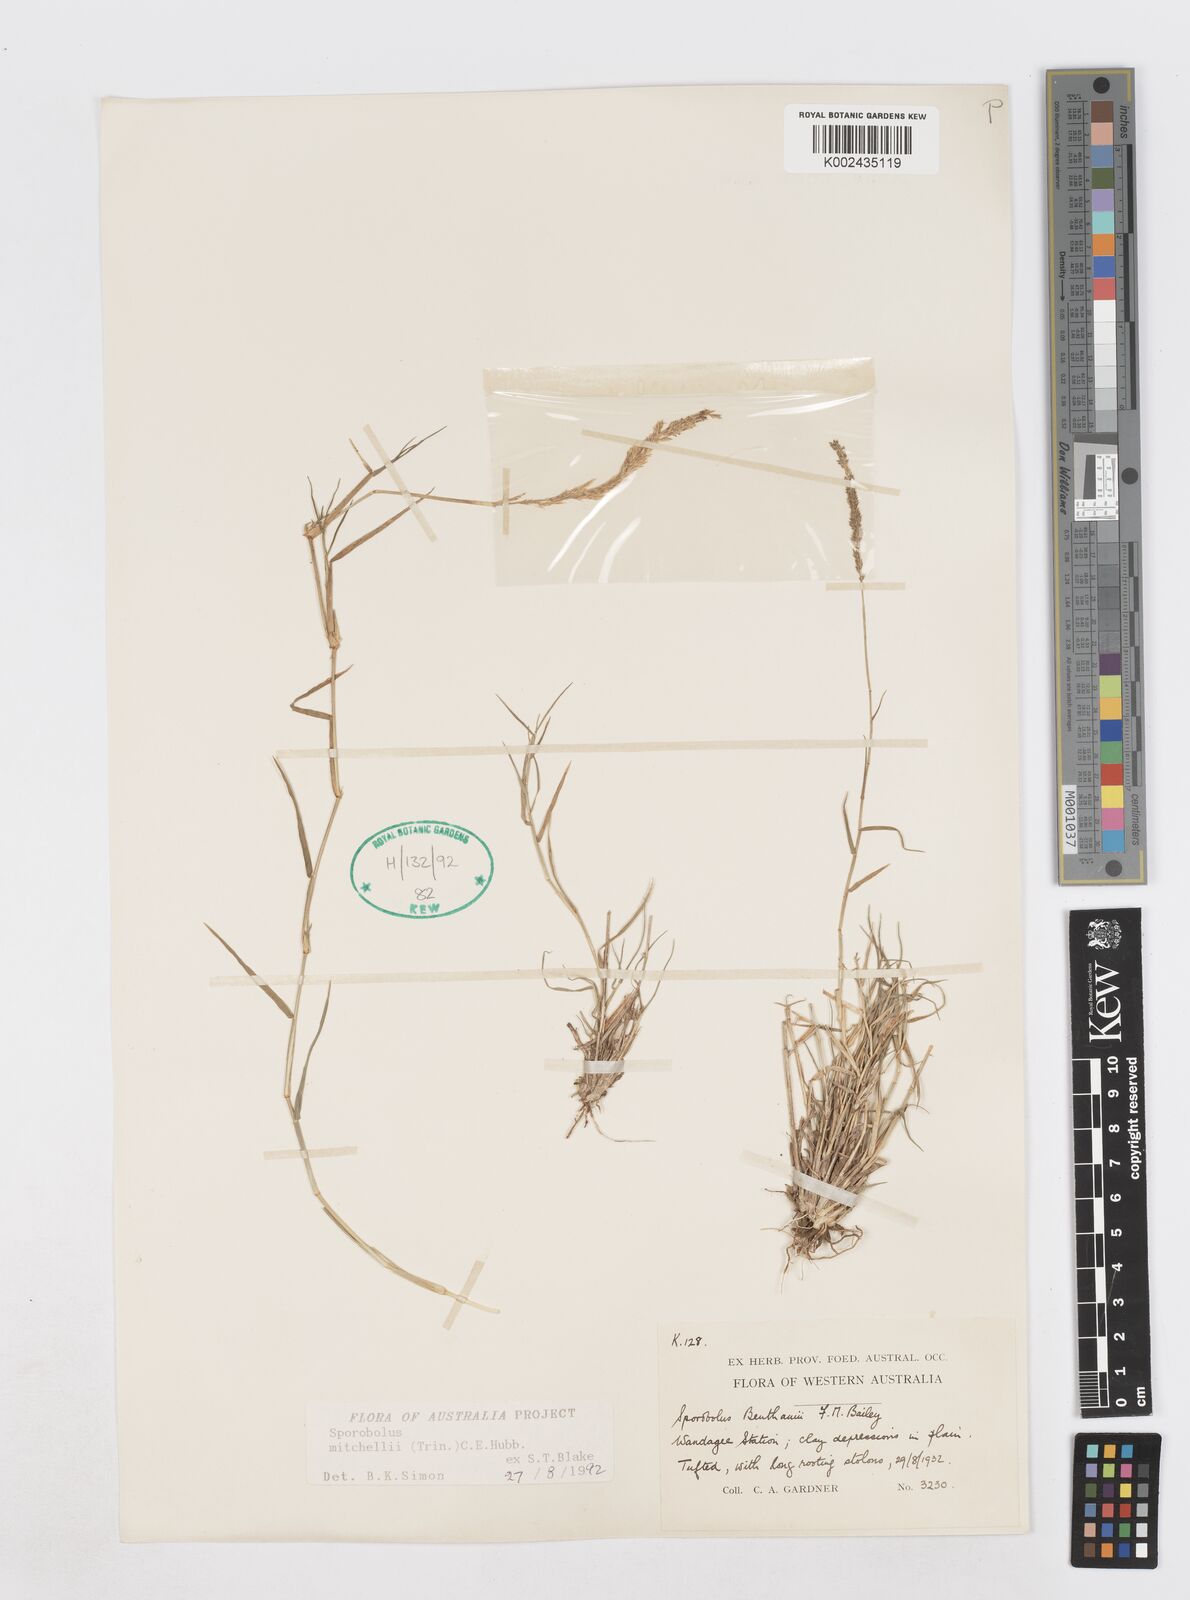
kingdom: Plantae
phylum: Tracheophyta
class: Liliopsida
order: Poales
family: Poaceae
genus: Sporobolus
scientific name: Sporobolus mitchellii
